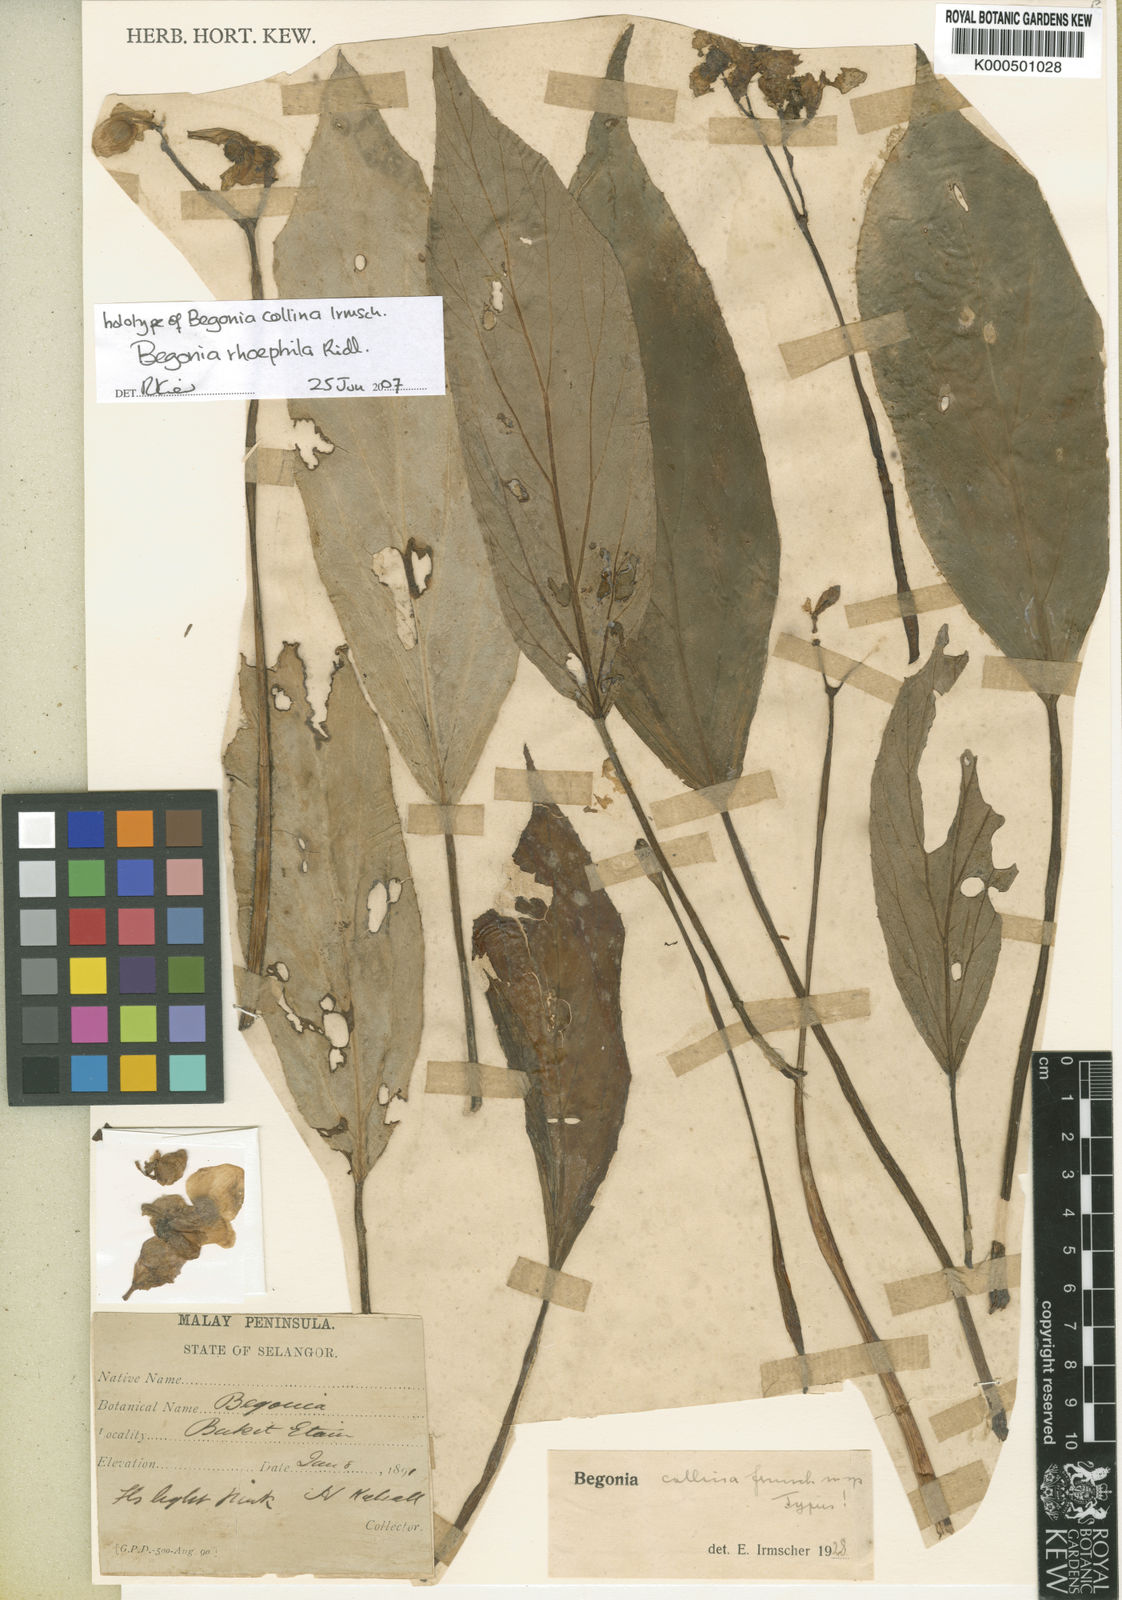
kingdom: Plantae
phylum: Tracheophyta
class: Magnoliopsida
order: Cucurbitales
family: Begoniaceae
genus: Begonia
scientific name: Begonia rhoephila
